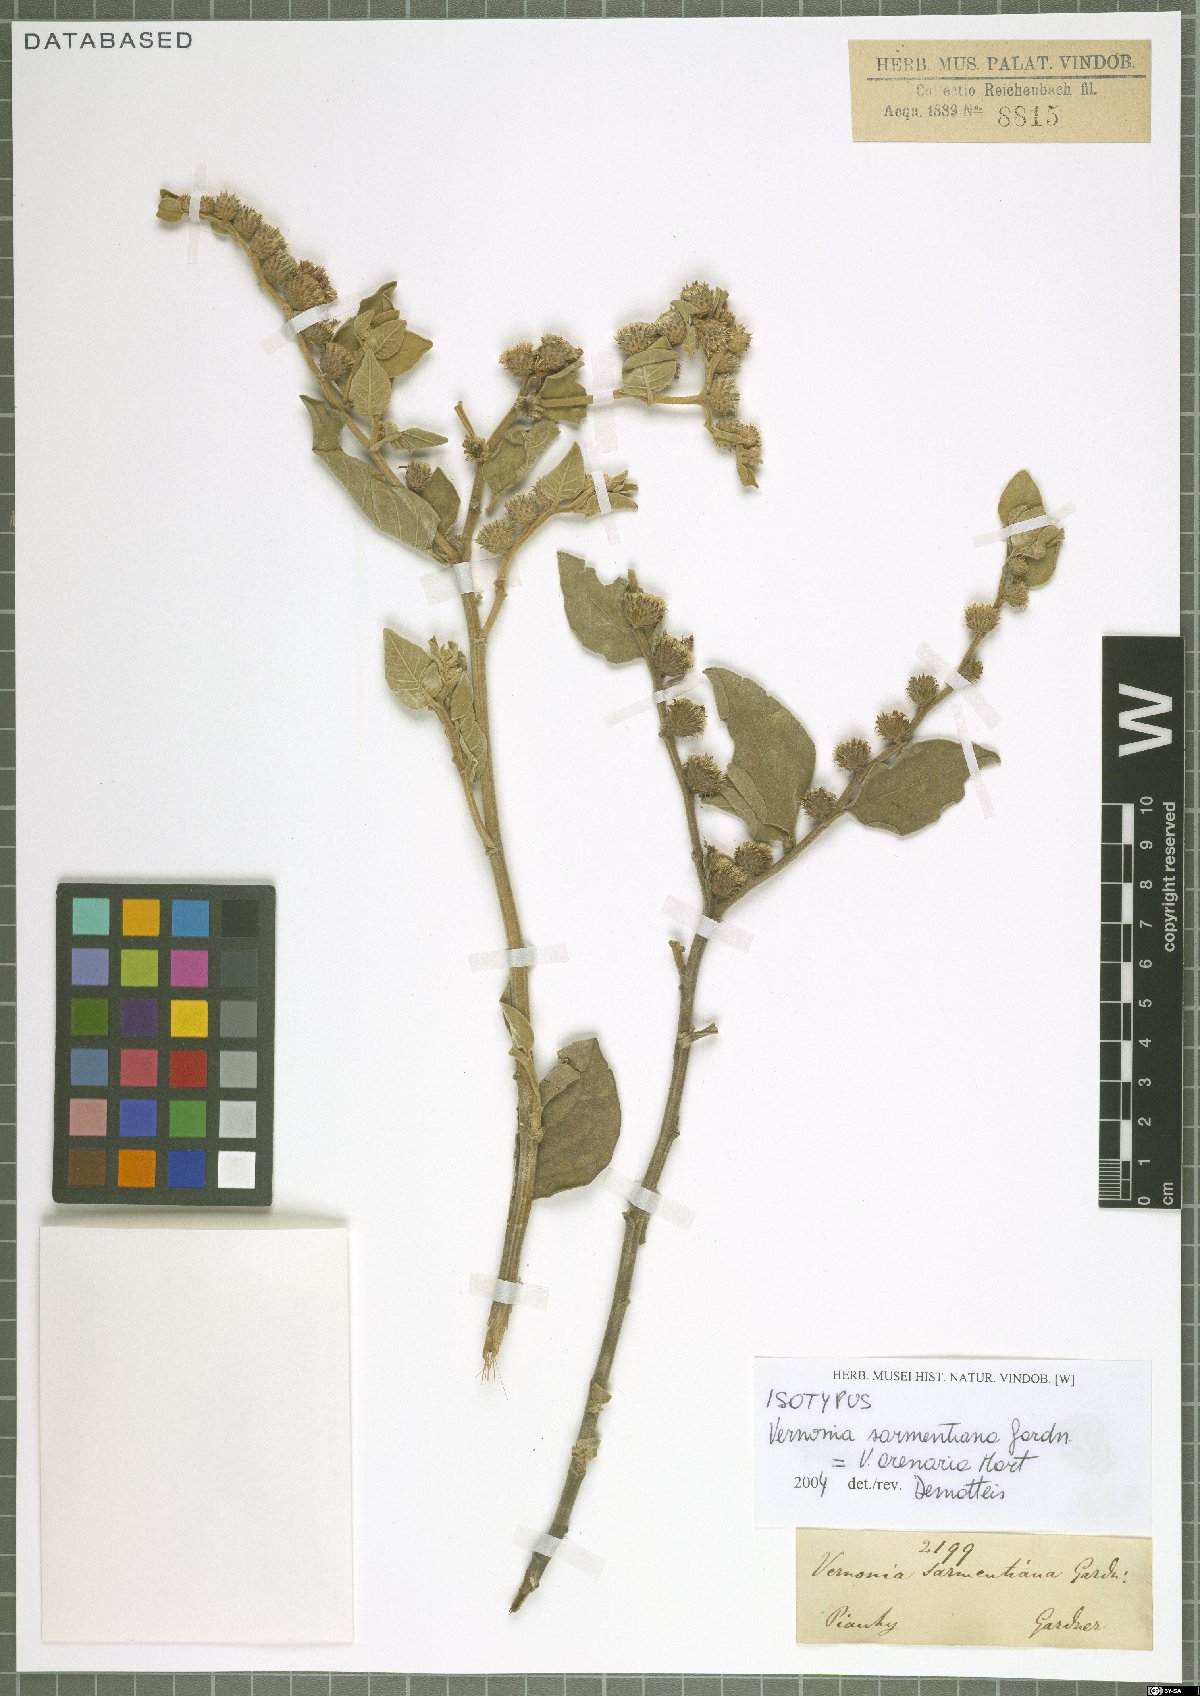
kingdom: Plantae
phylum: Tracheophyta
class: Magnoliopsida
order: Asterales
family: Asteraceae
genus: Lepidaploa
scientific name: Lepidaploa arenaria
